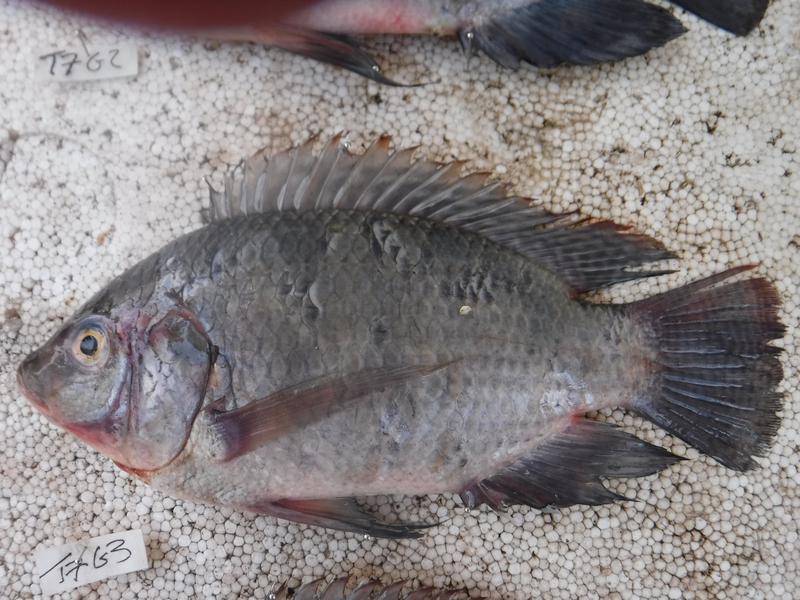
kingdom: Animalia
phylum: Chordata
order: Perciformes
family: Cichlidae
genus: Oreochromis
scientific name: Oreochromis urolepis
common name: Wami tilapia
